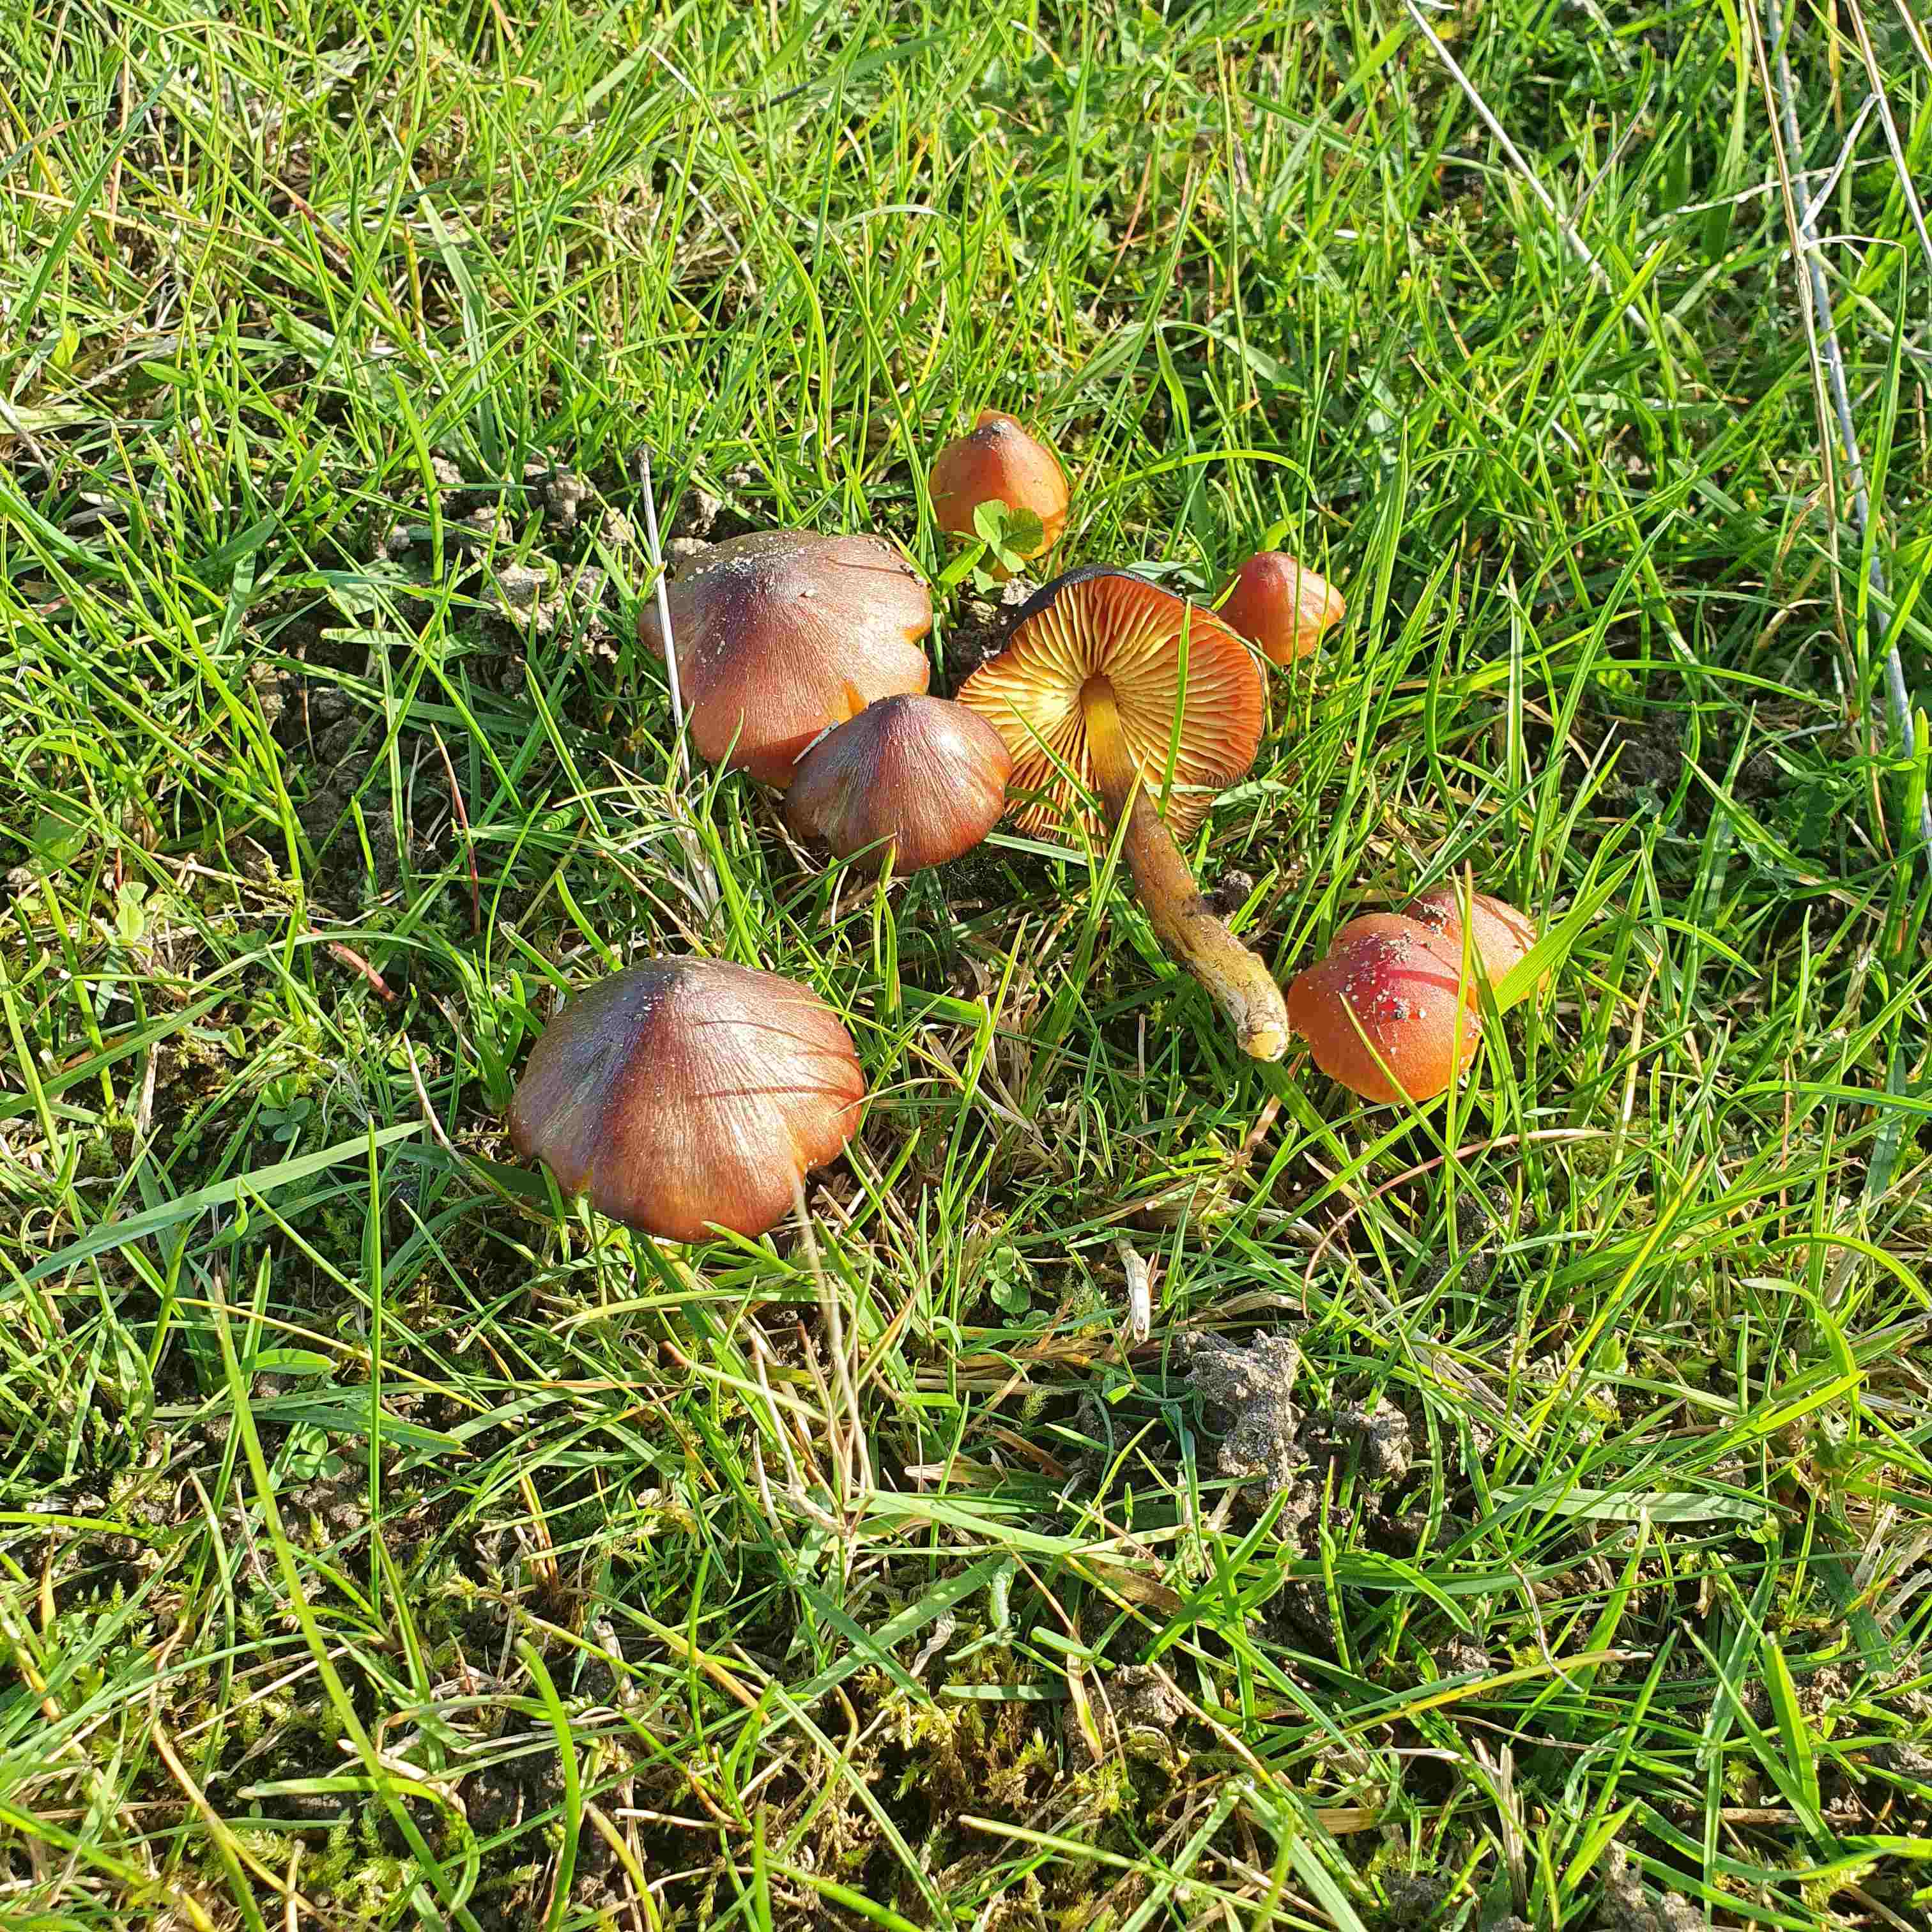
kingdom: Fungi
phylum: Basidiomycota
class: Agaricomycetes
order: Agaricales
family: Hygrophoraceae
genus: Hygrocybe
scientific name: Hygrocybe conica
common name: kegle-vokshat
